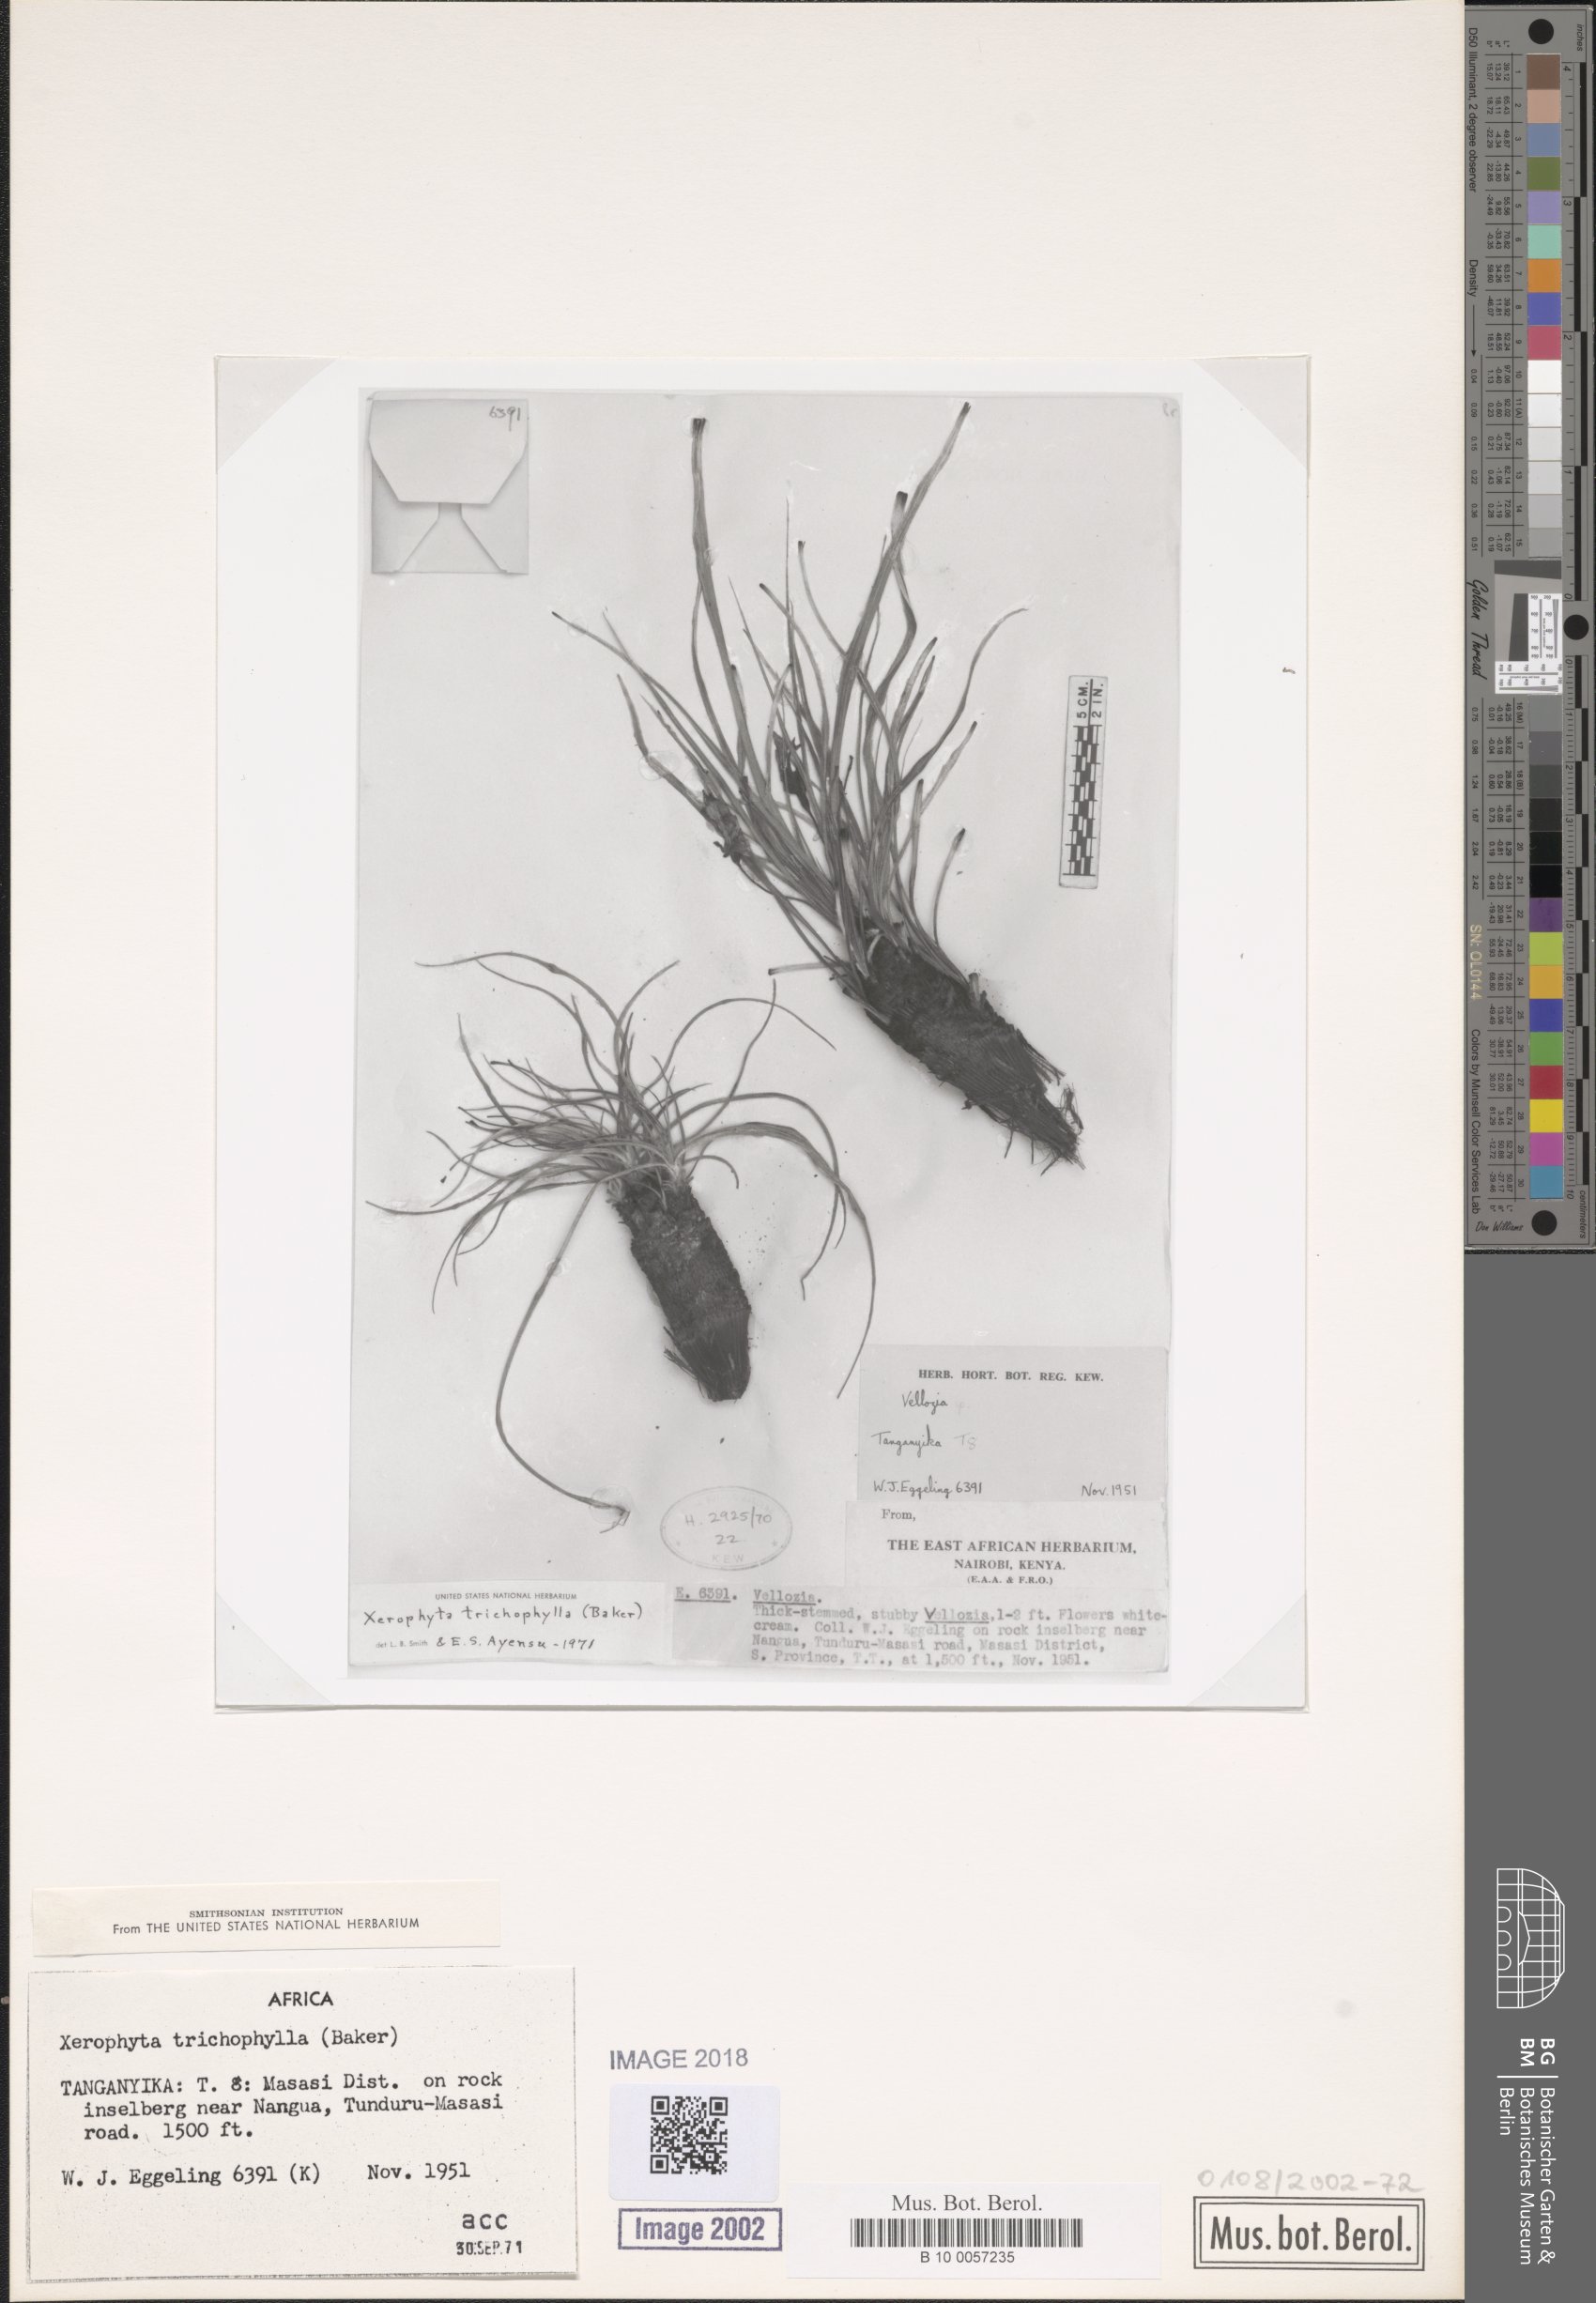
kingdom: Plantae
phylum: Tracheophyta
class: Liliopsida
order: Pandanales
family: Velloziaceae
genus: Xerophyta
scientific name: Xerophyta trichophylla
